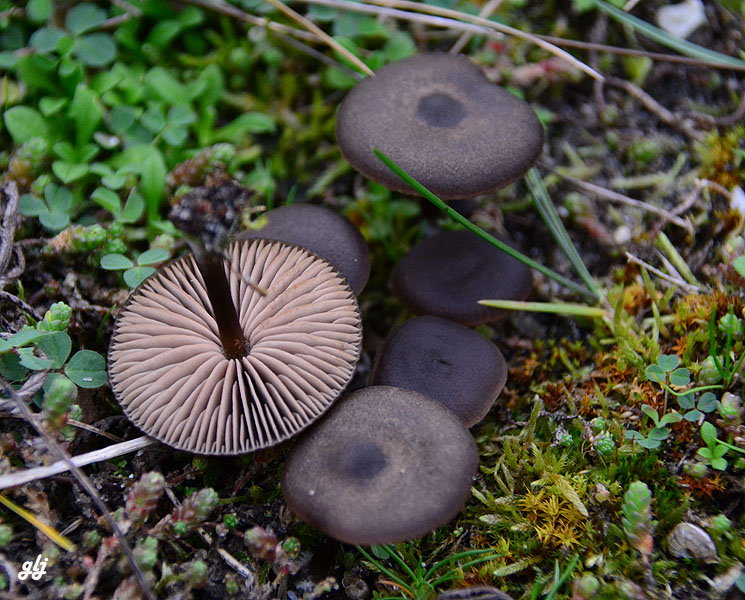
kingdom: Fungi
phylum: Basidiomycota
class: Agaricomycetes
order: Agaricales
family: Entolomataceae
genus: Entoloma
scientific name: Entoloma vindobonense
